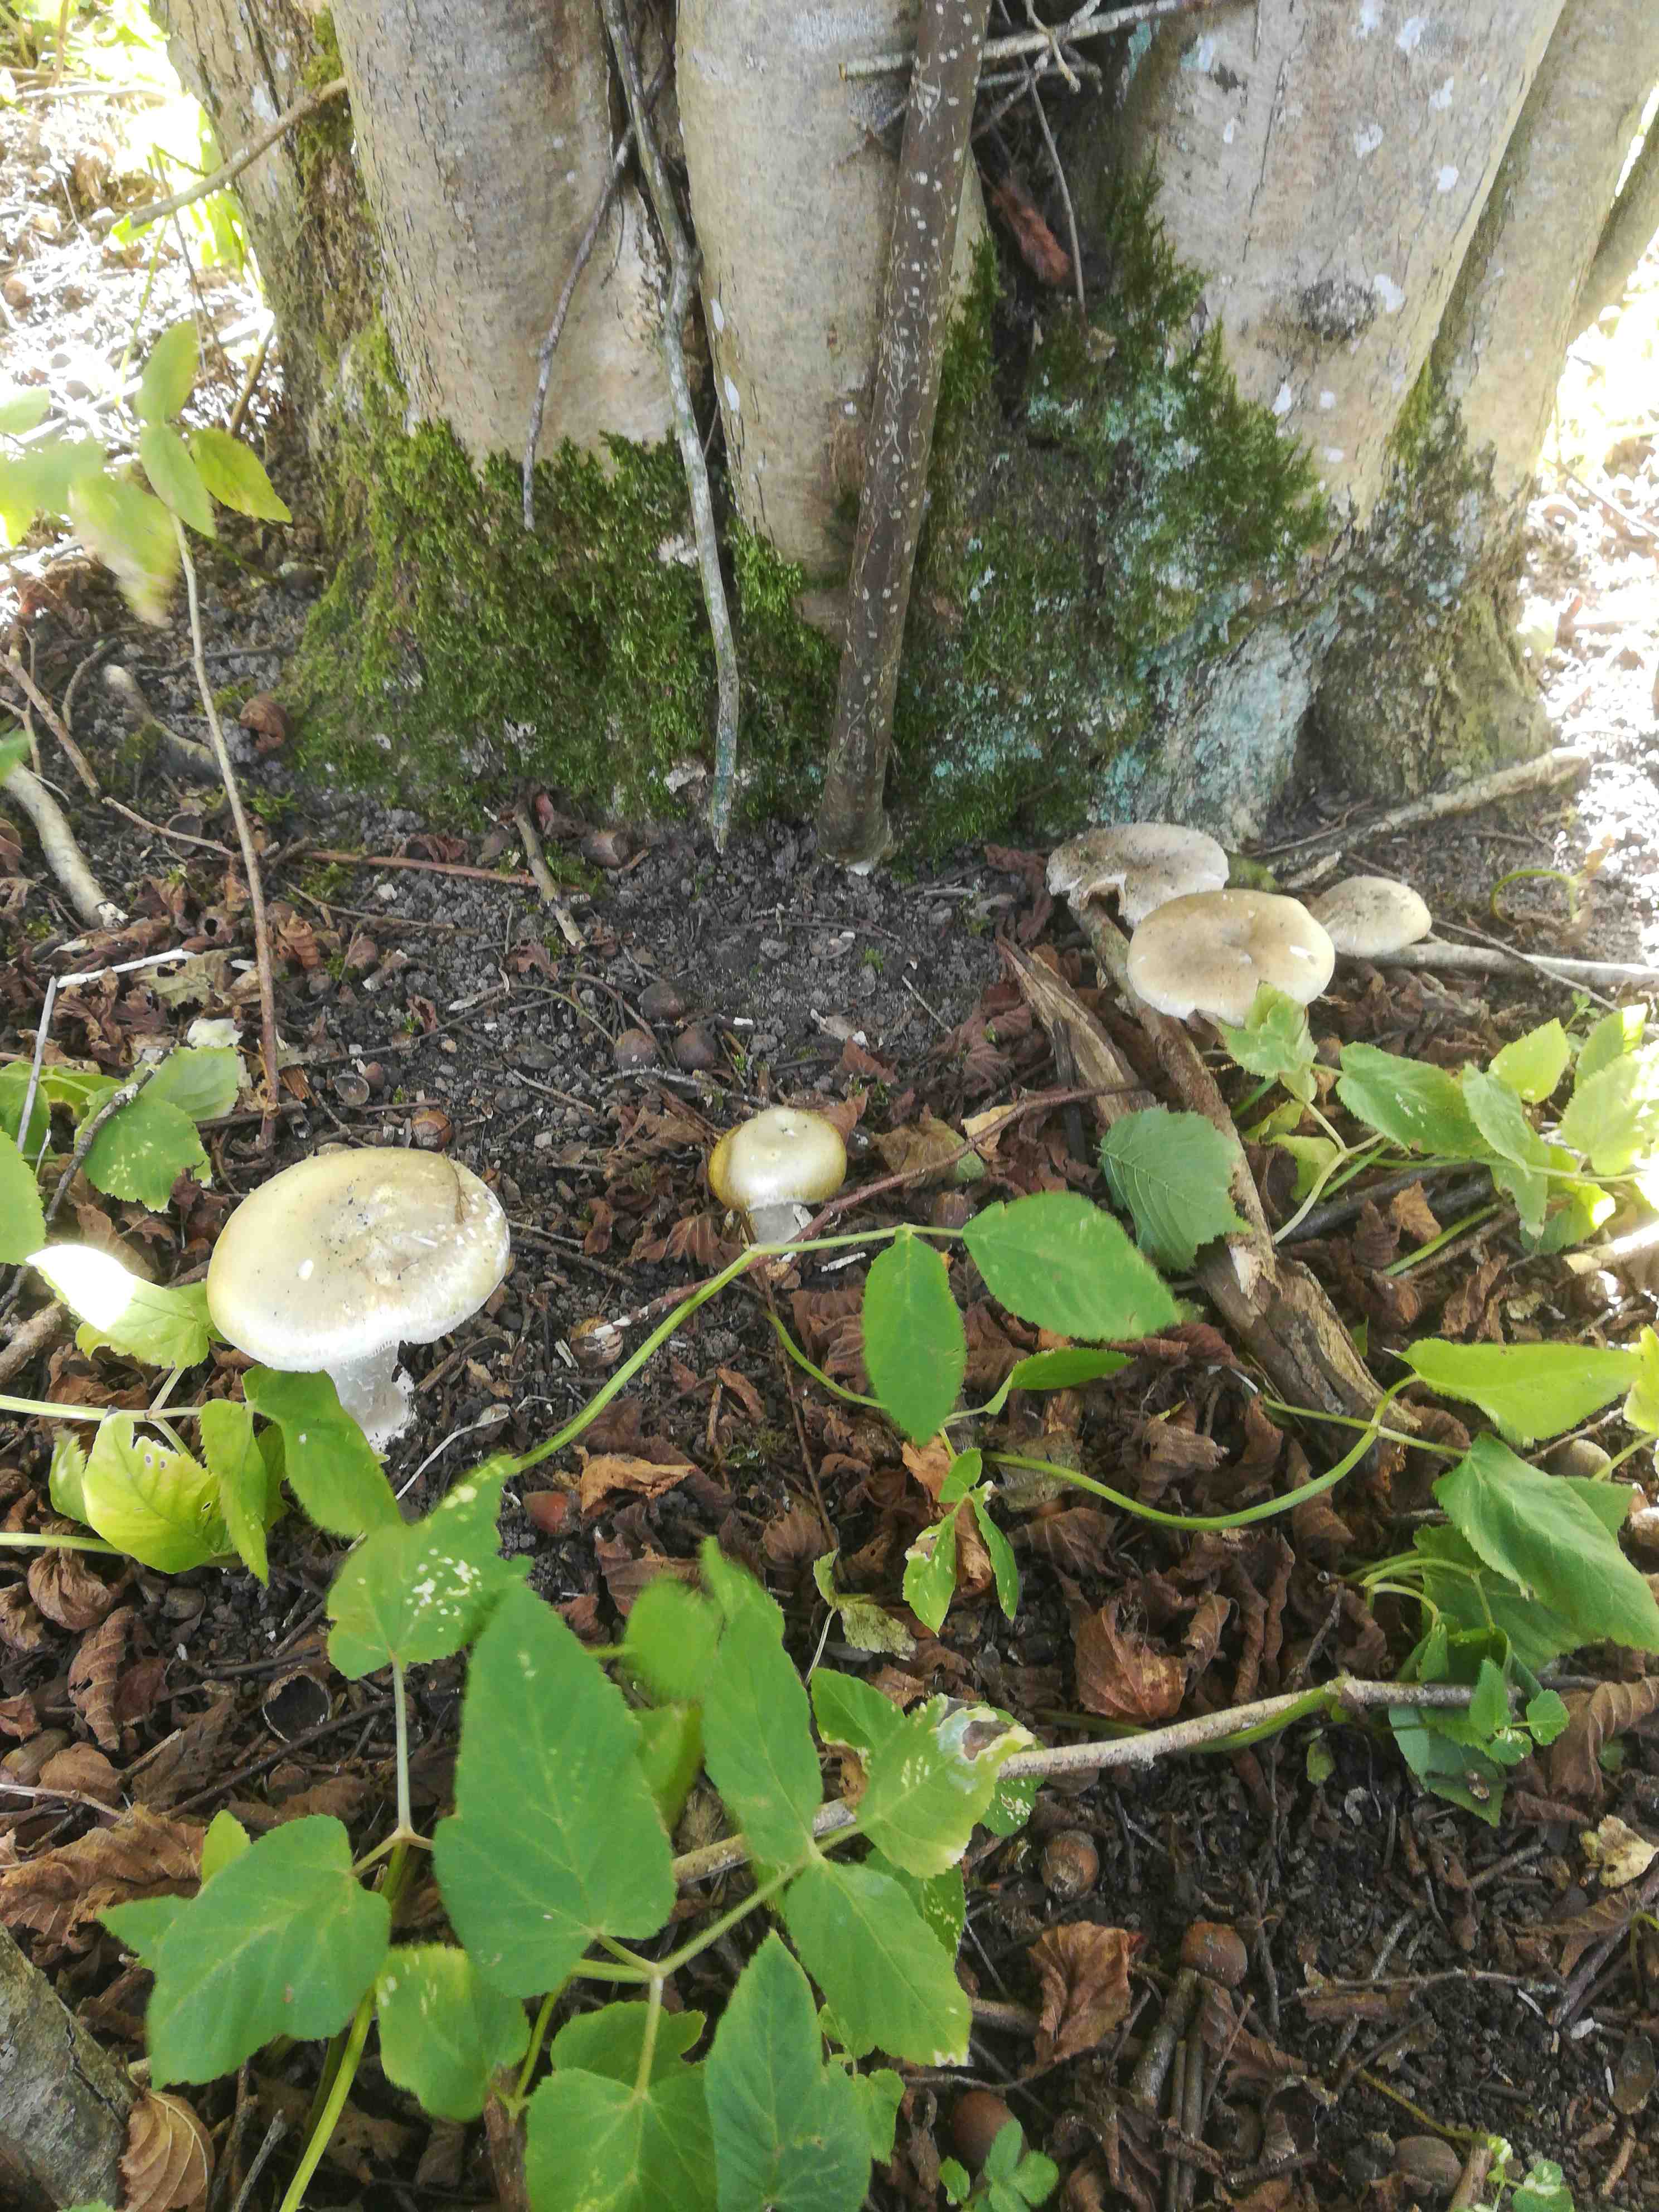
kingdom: Fungi
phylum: Basidiomycota
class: Agaricomycetes
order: Agaricales
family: Amanitaceae
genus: Amanita
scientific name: Amanita phalloides
